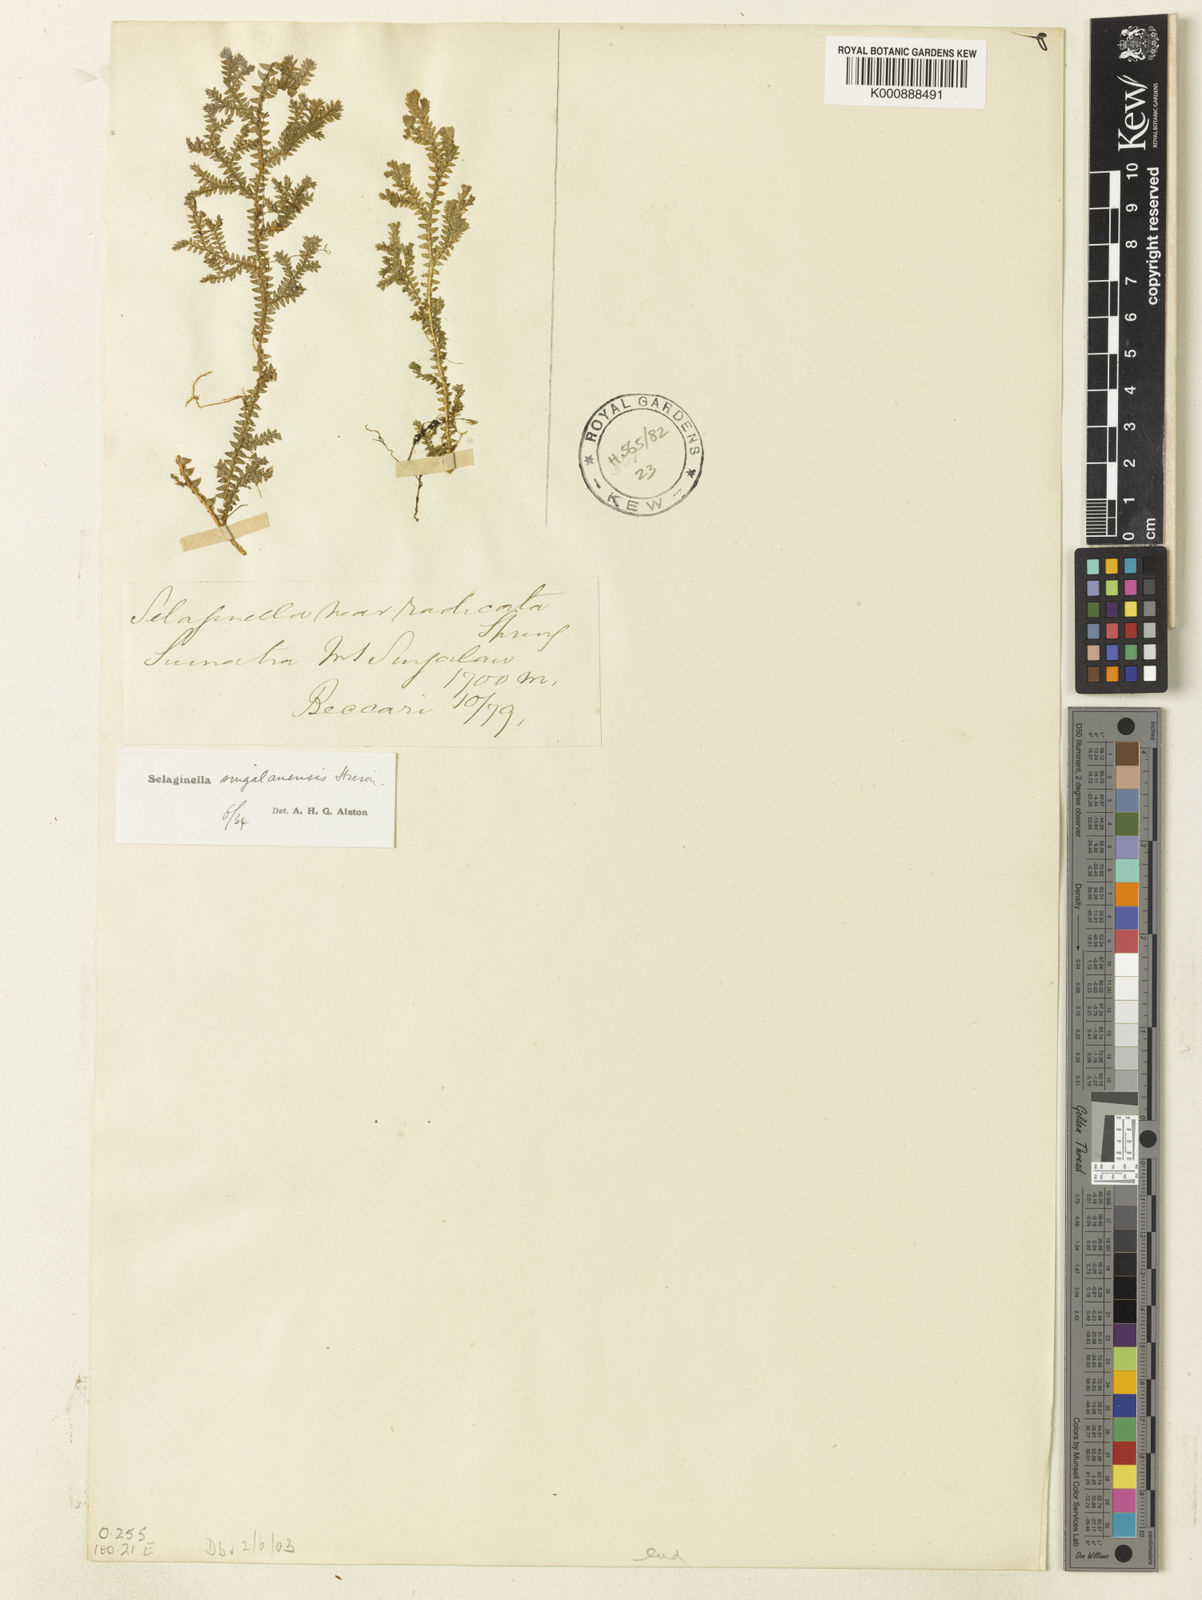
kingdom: Plantae
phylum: Tracheophyta
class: Lycopodiopsida
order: Selaginellales
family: Selaginellaceae
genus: Selaginella
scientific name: Selaginella
